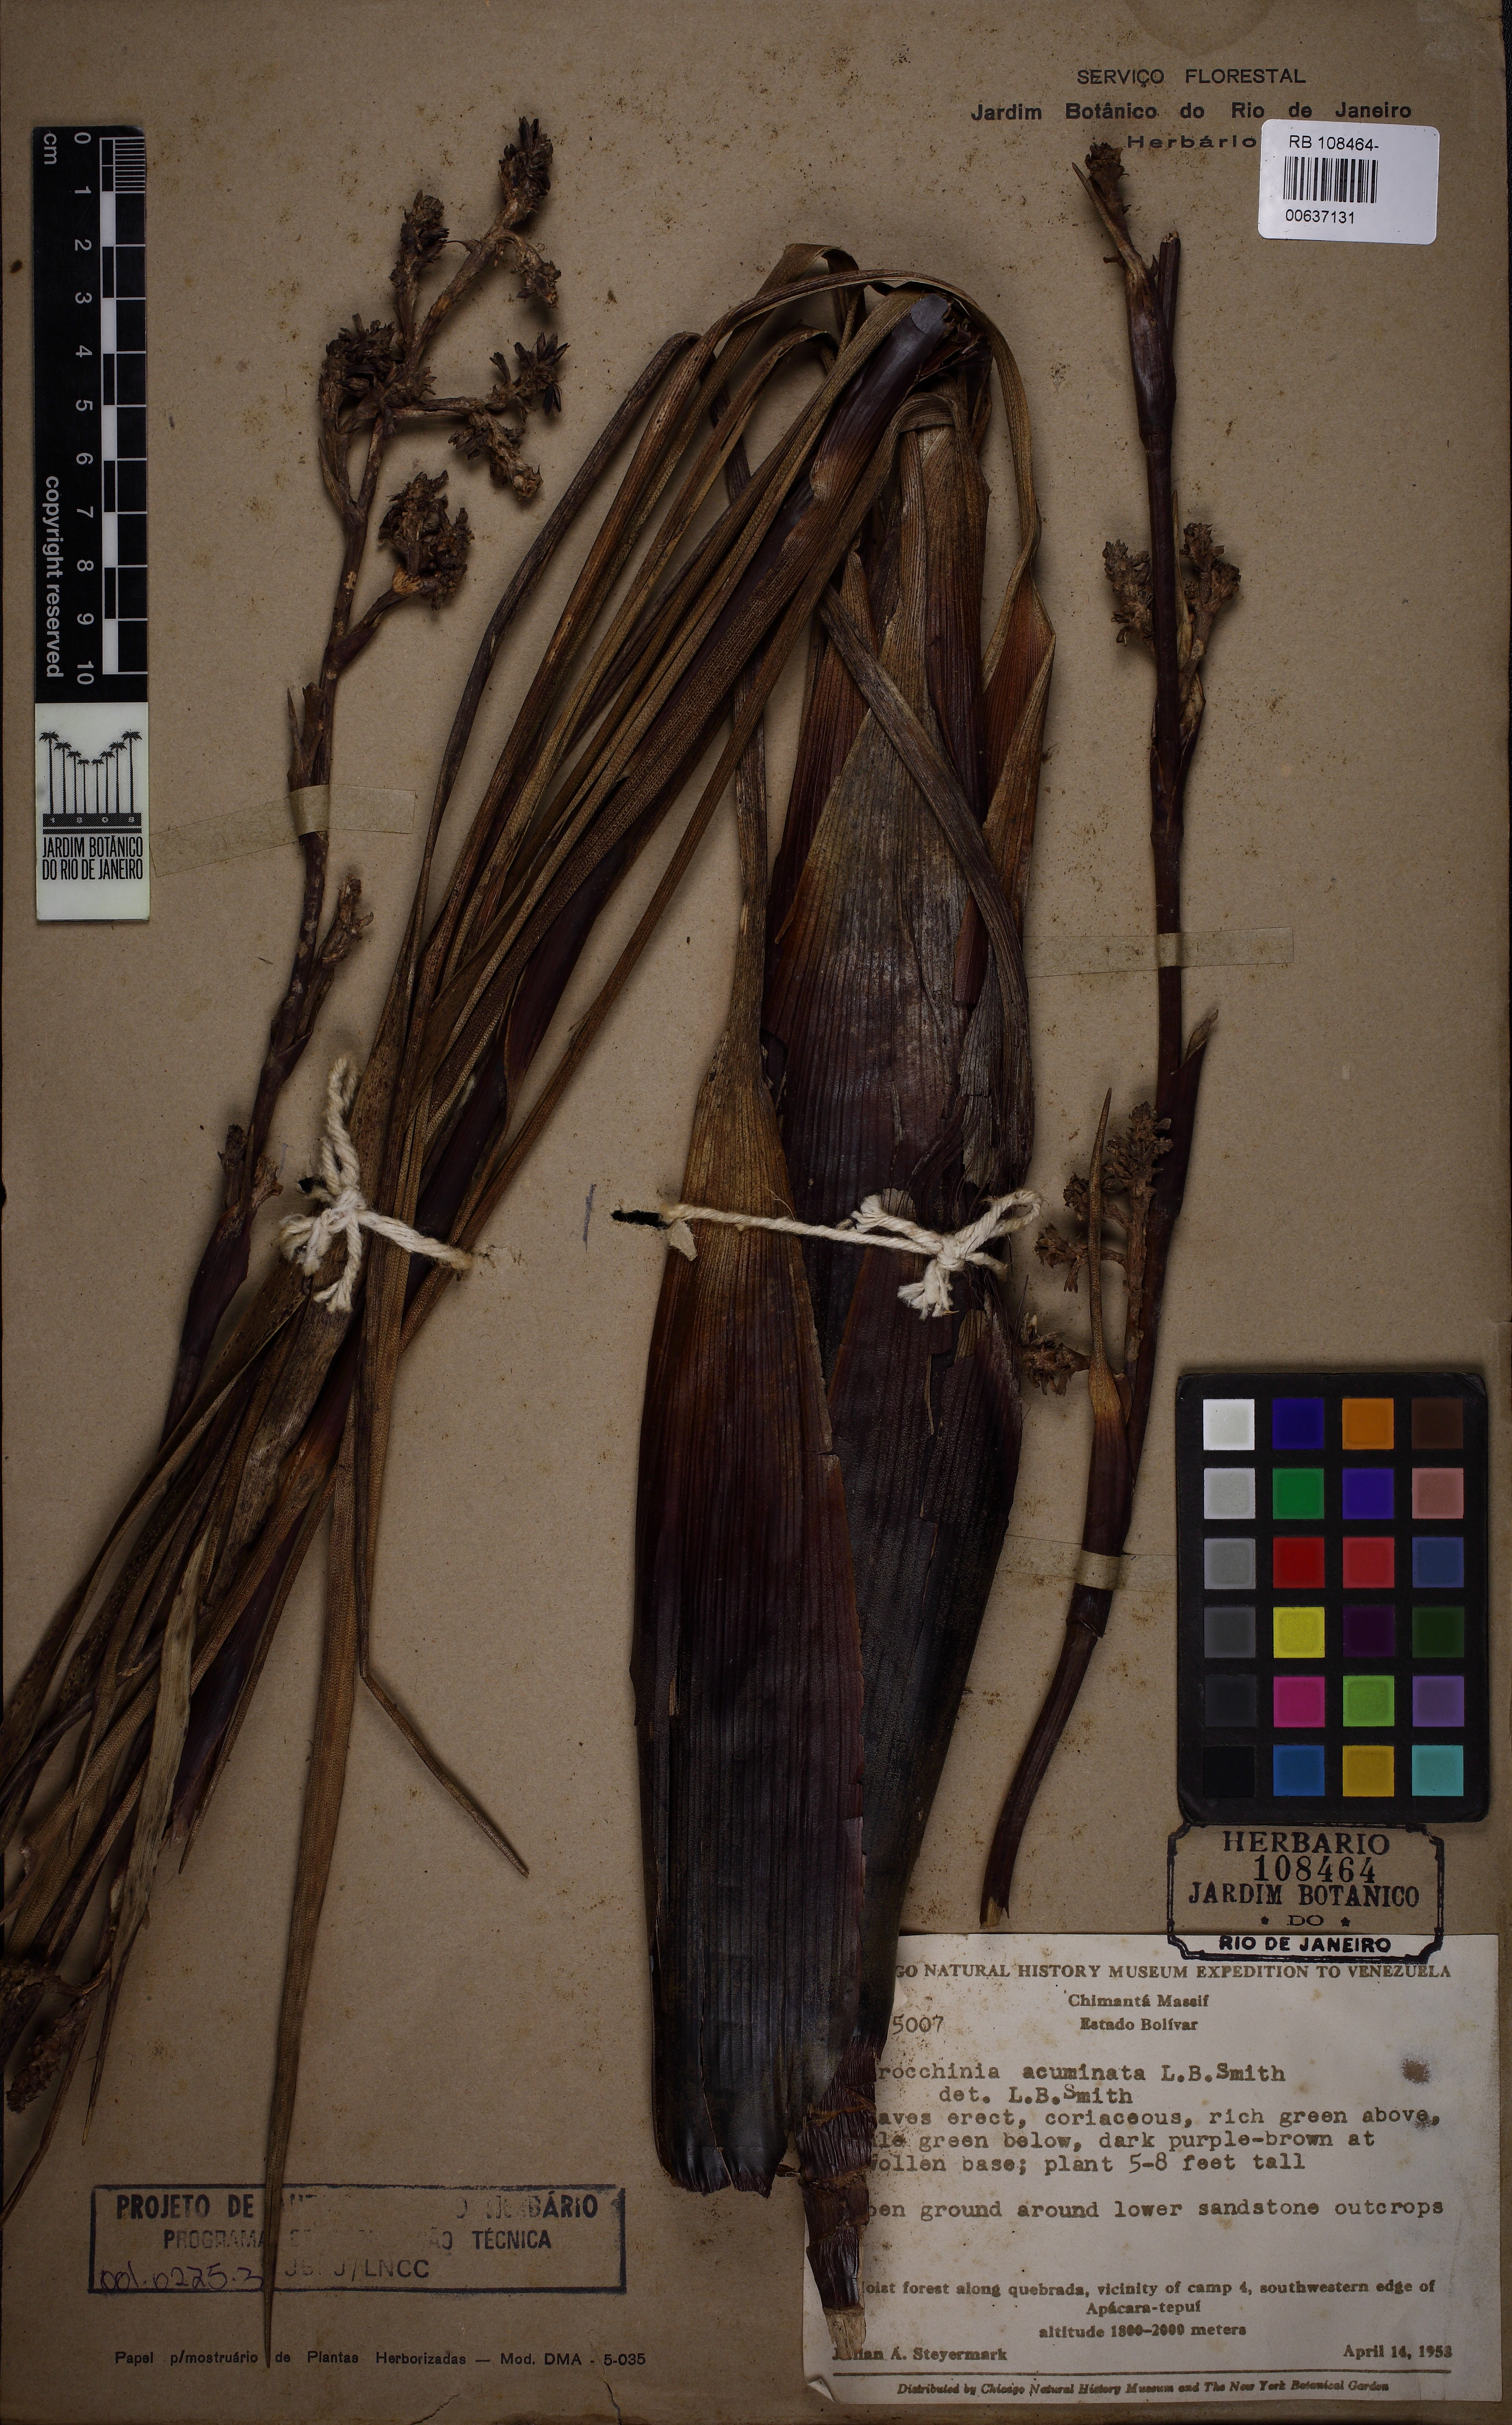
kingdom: Plantae
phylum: Tracheophyta
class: Liliopsida
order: Poales
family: Bromeliaceae
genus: Brocchinia
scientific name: Brocchinia acuminata
